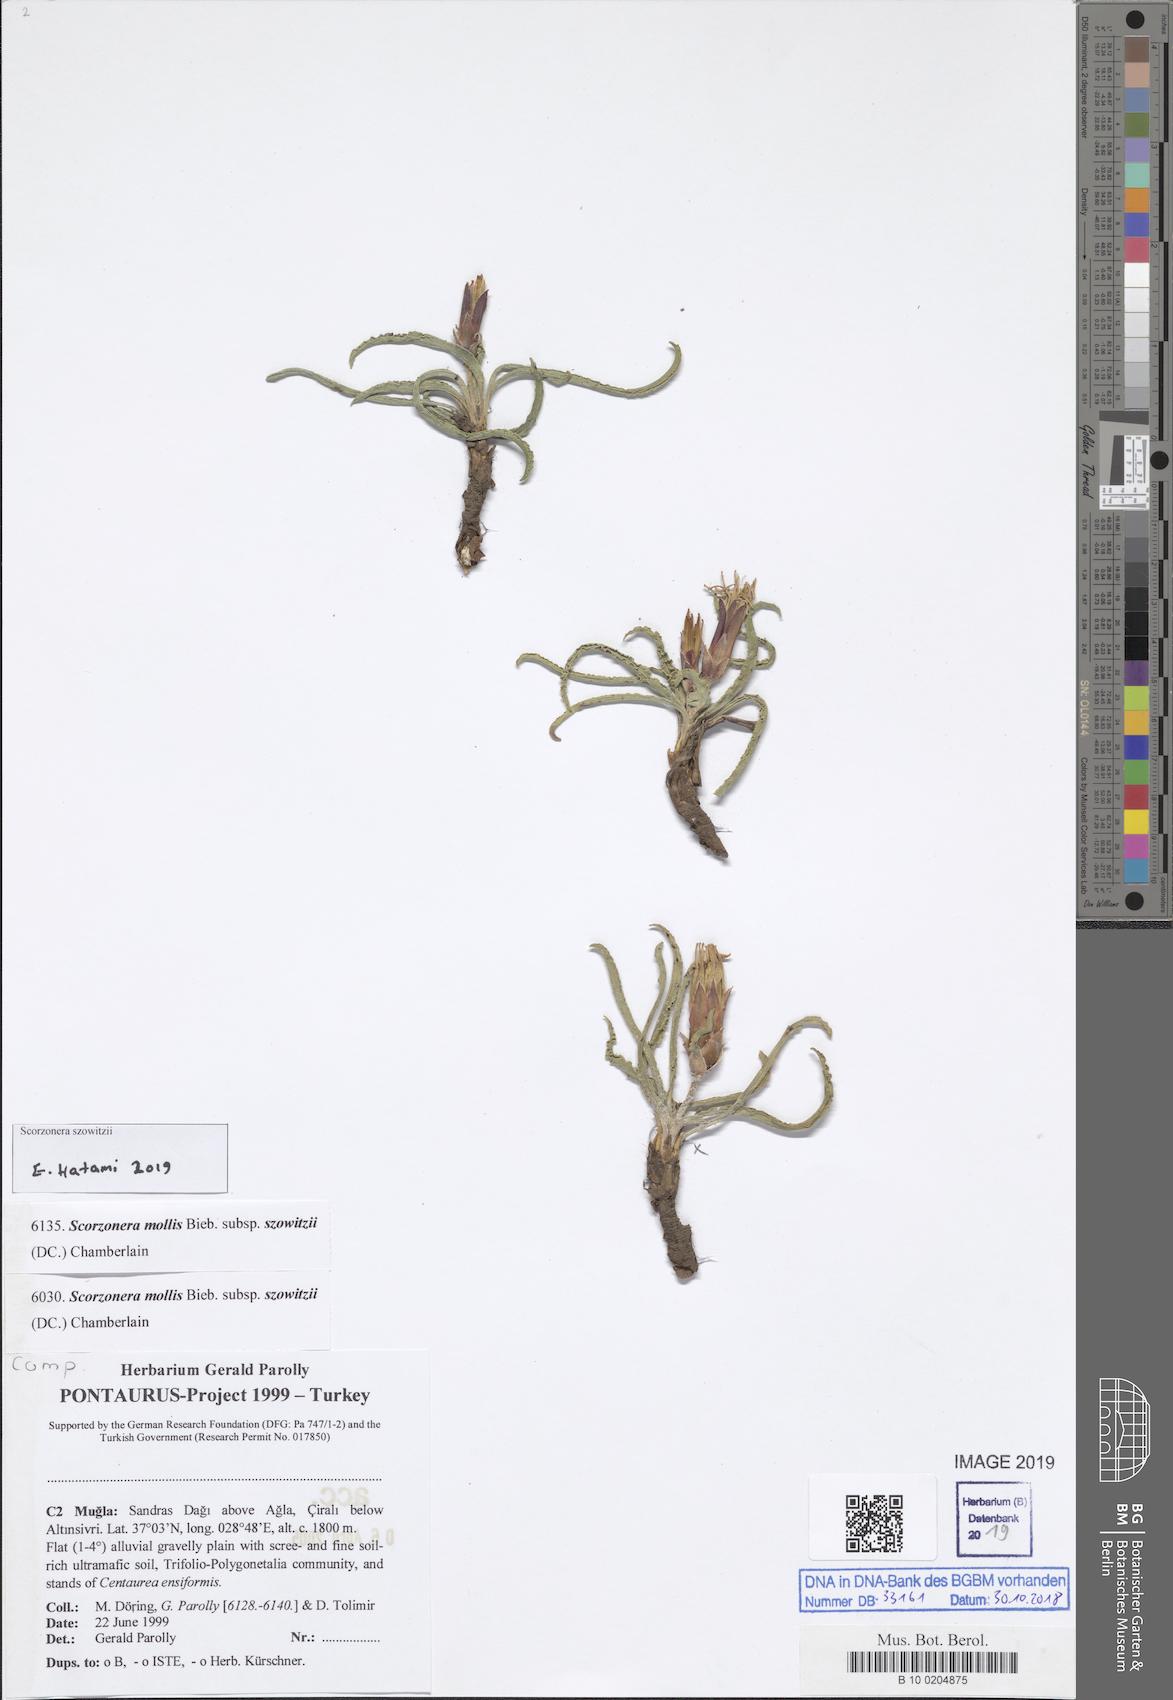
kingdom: Plantae
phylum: Tracheophyta
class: Magnoliopsida
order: Asterales
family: Asteraceae
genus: Candollea
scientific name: Candollea mollis
